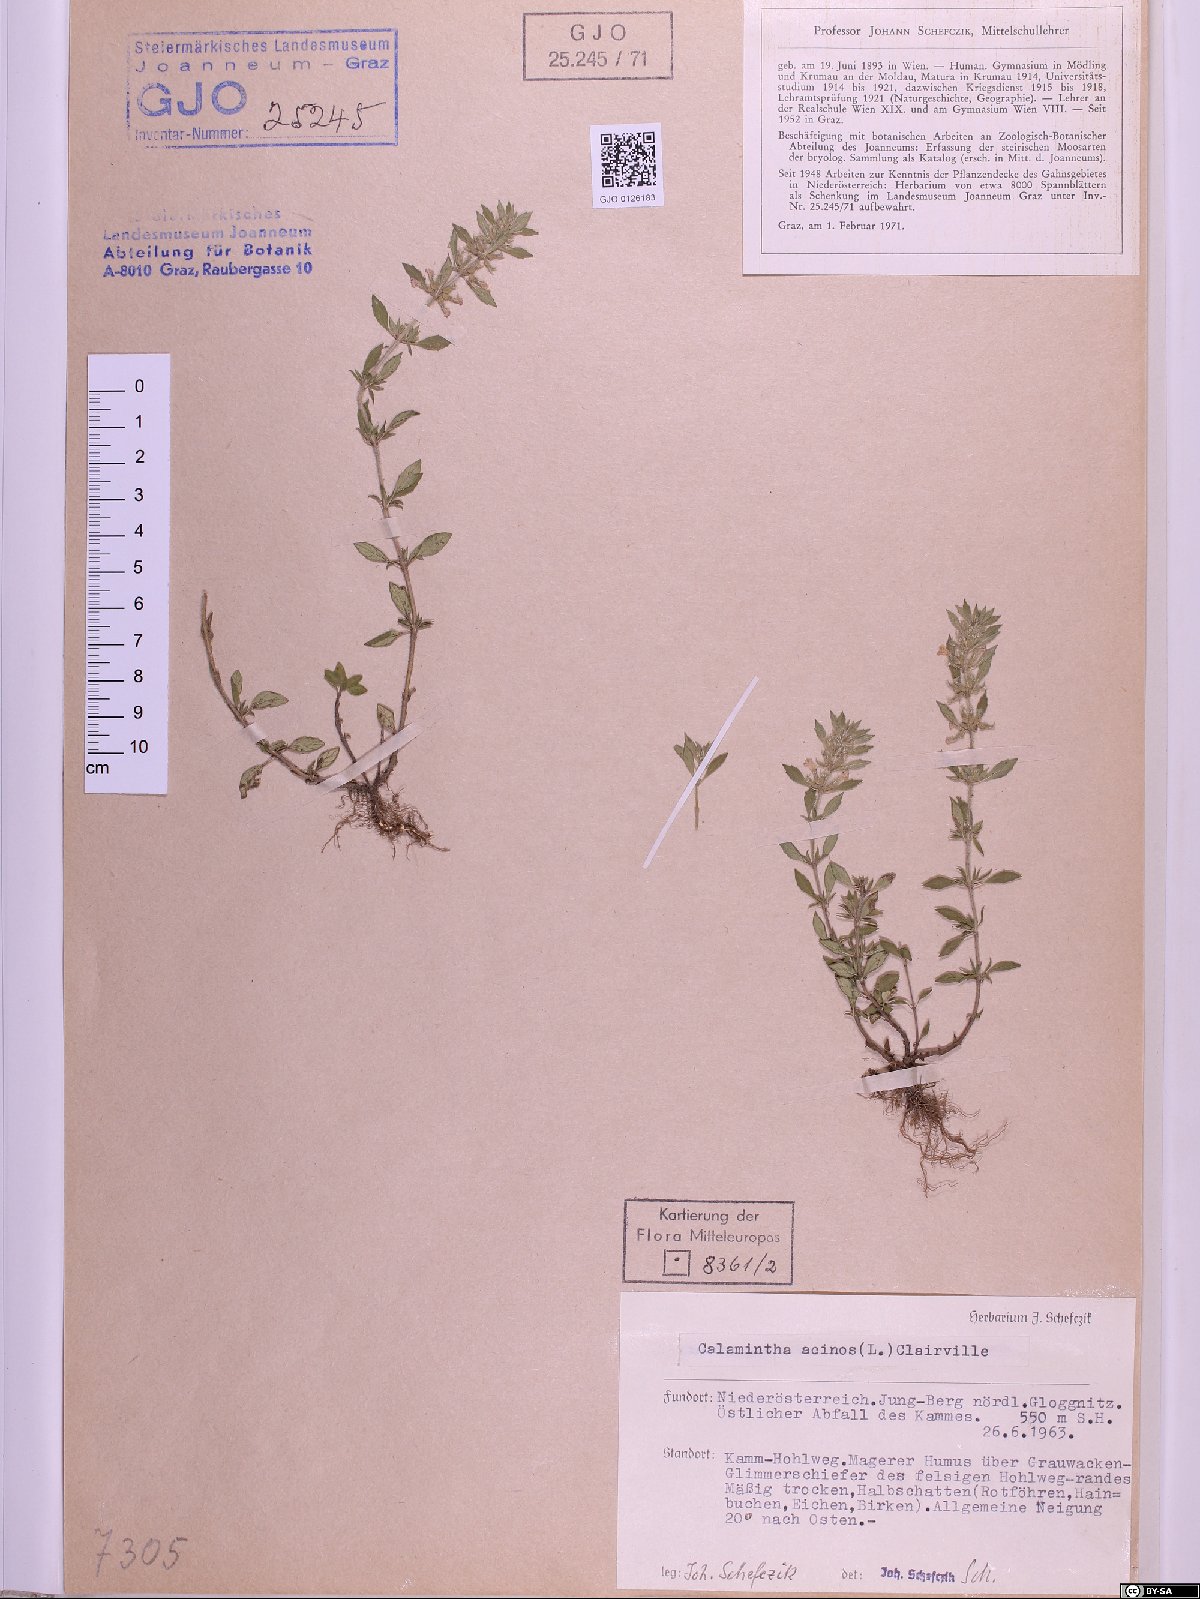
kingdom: Plantae
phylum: Tracheophyta
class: Magnoliopsida
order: Lamiales
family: Lamiaceae
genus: Clinopodium
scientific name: Clinopodium acinos
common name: Basil thyme
